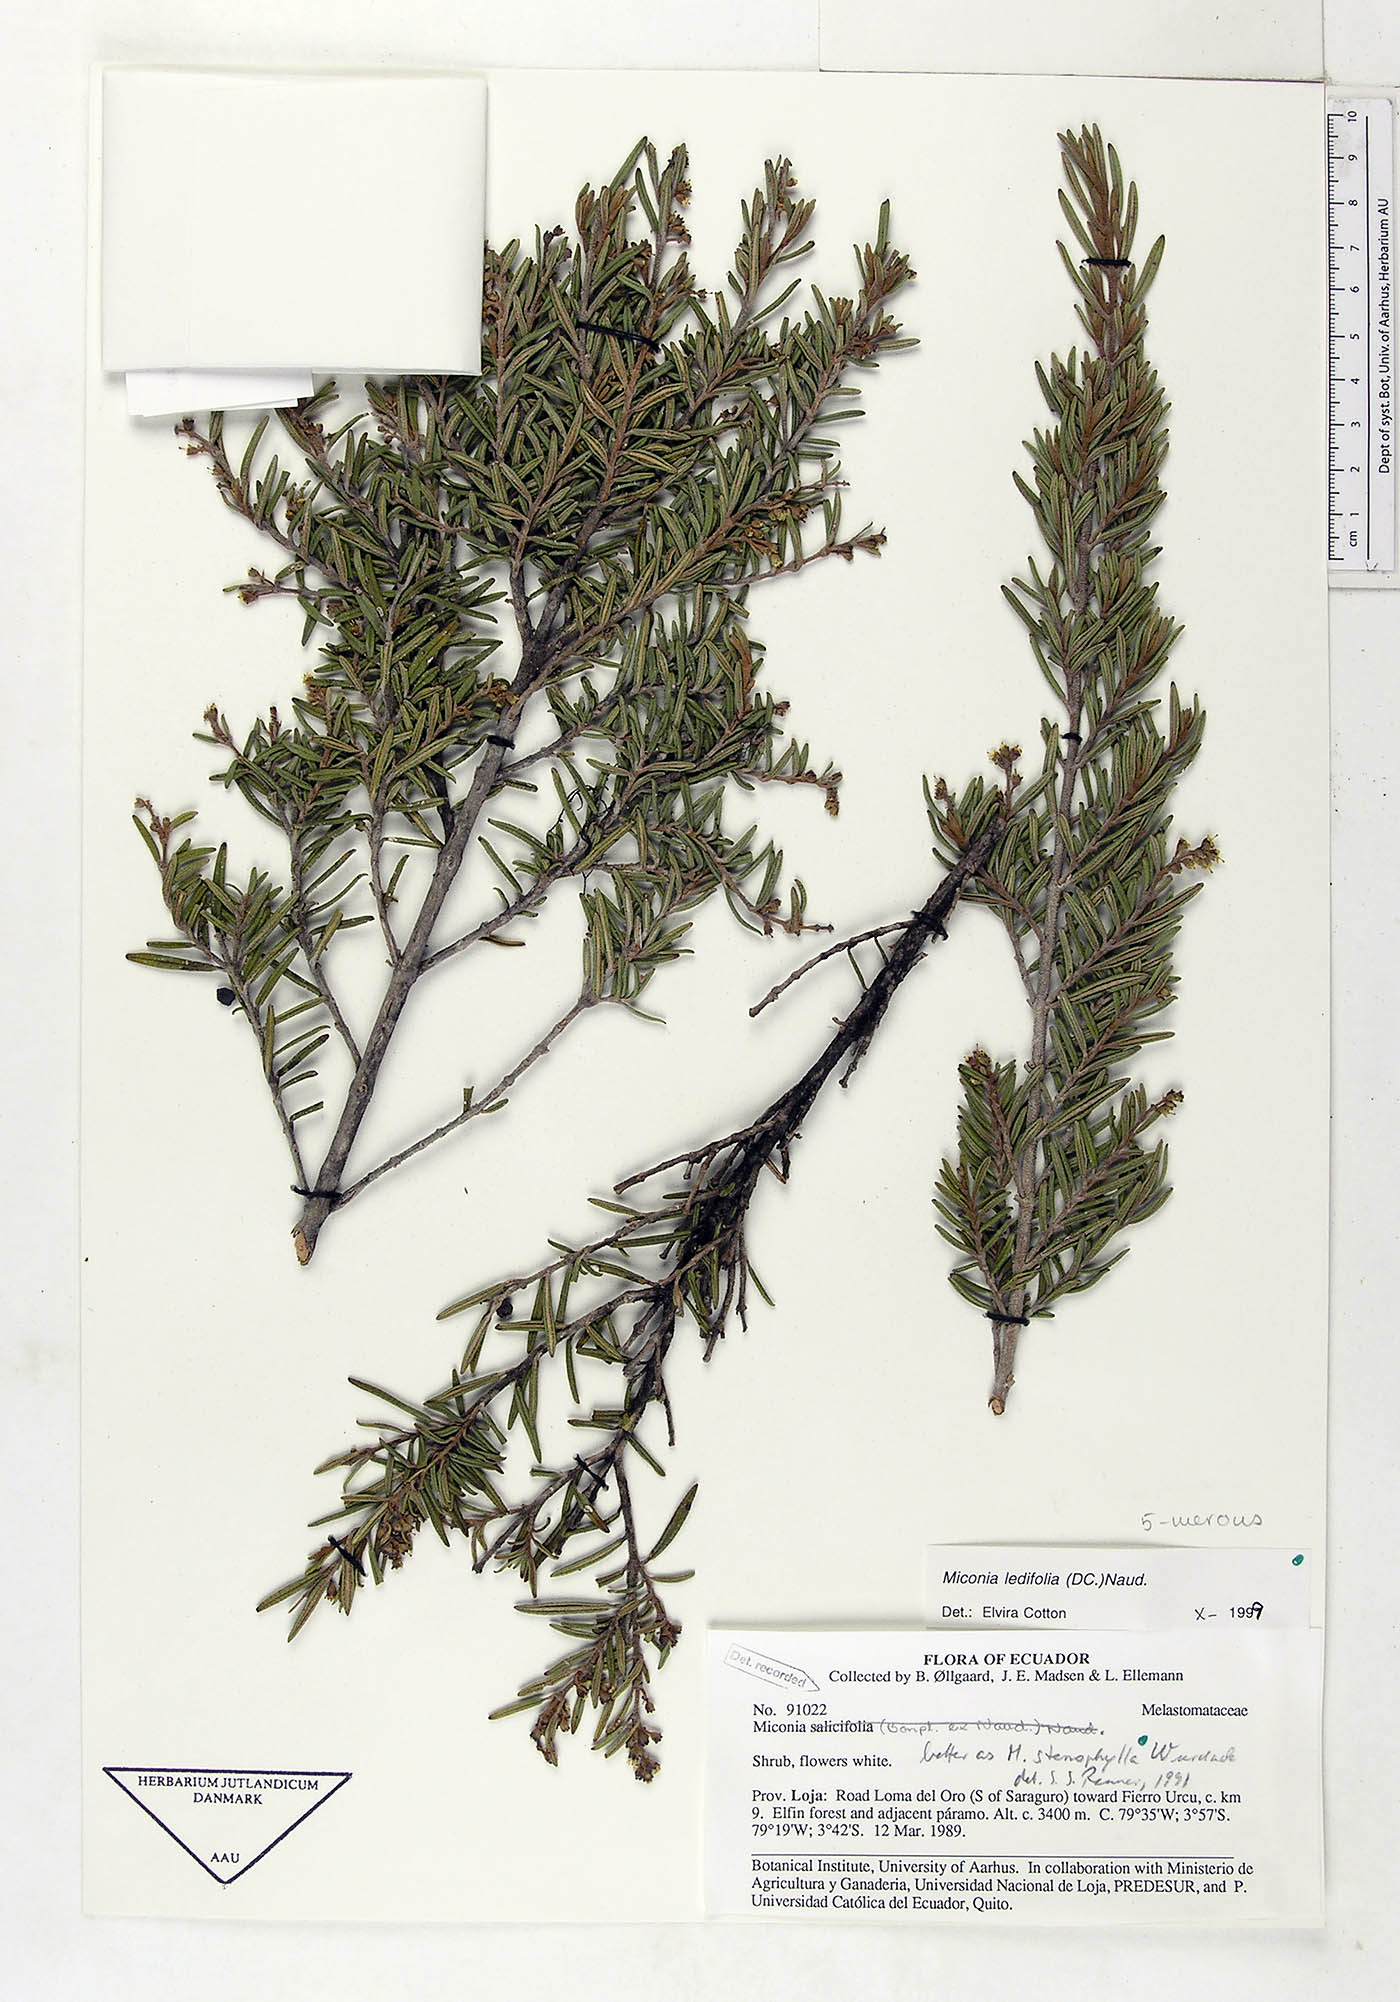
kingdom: Plantae
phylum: Tracheophyta
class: Magnoliopsida
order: Myrtales
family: Melastomataceae
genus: Miconia
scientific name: Miconia ledifolia
